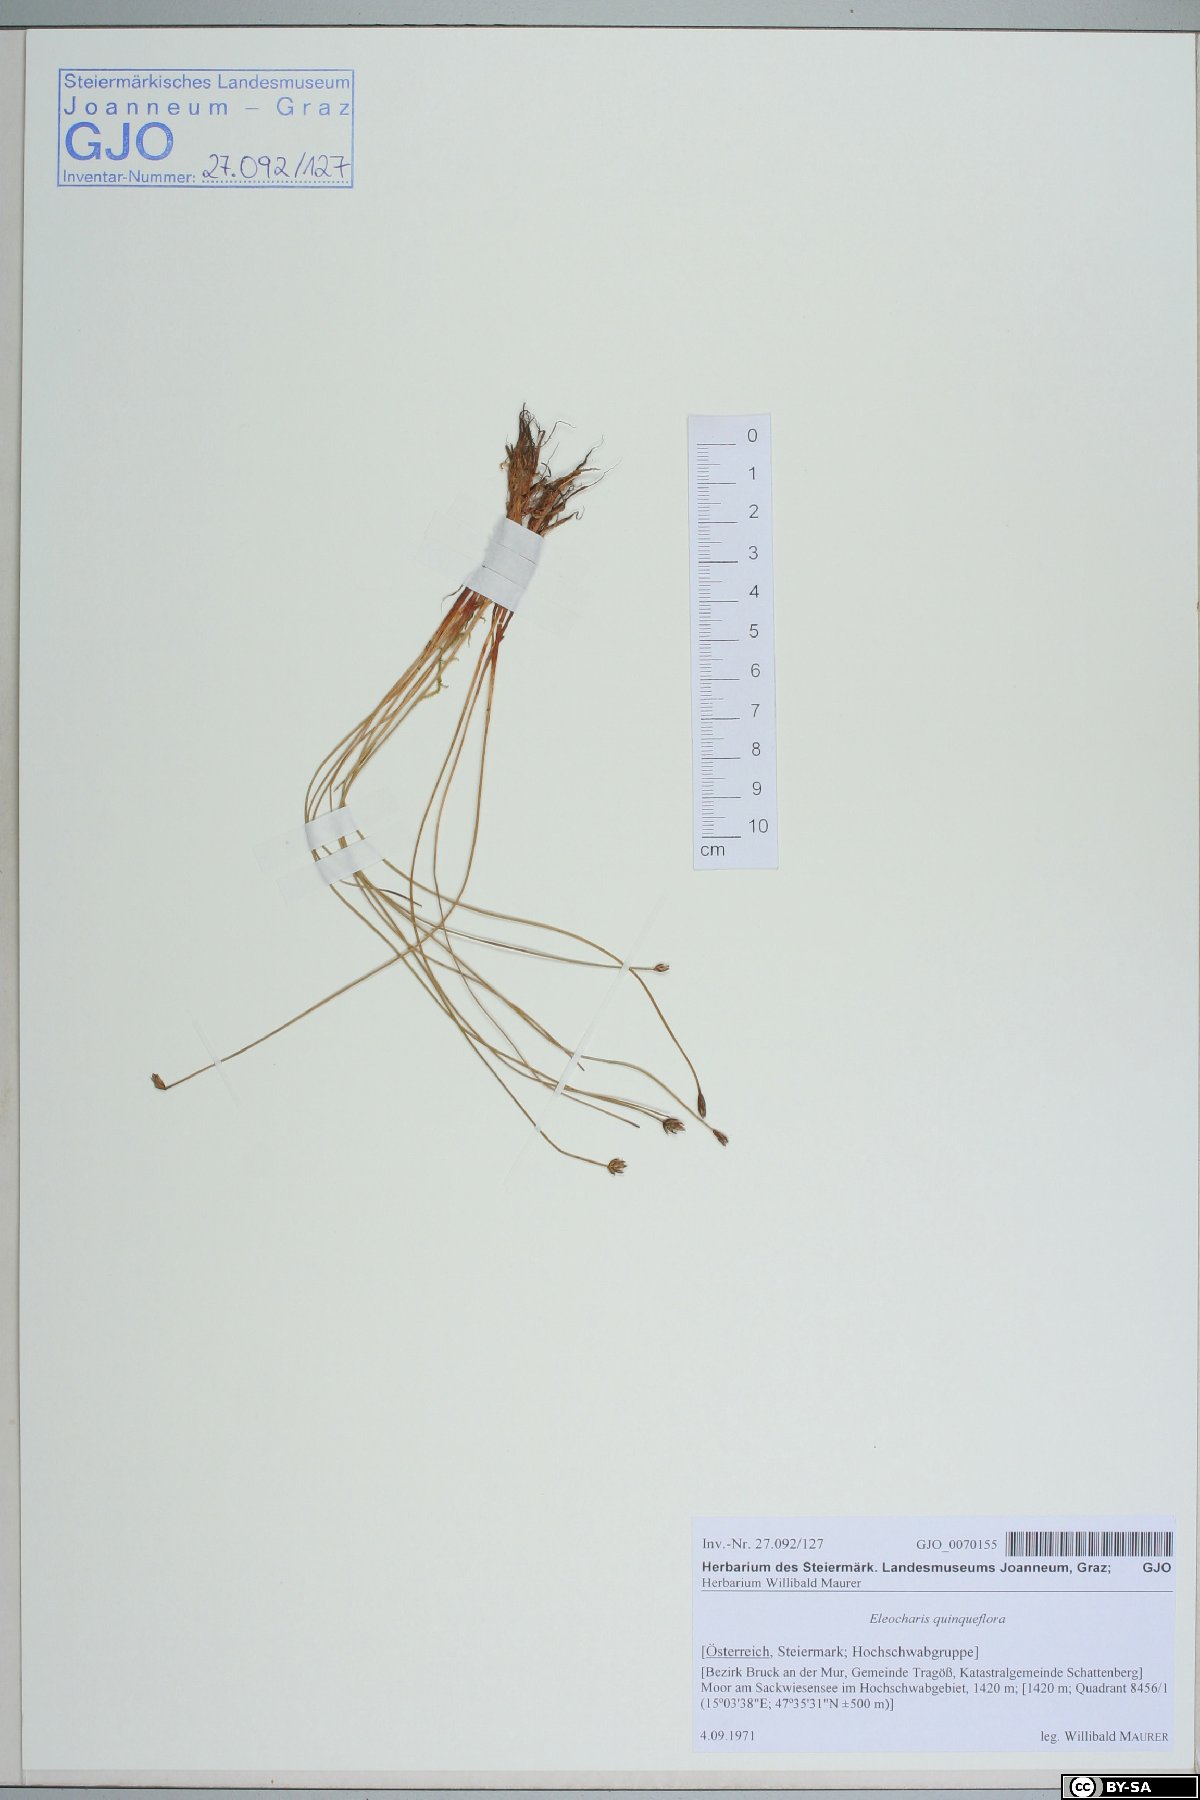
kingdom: Plantae
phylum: Tracheophyta
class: Liliopsida
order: Poales
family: Cyperaceae
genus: Eleocharis
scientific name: Eleocharis quinqueflora
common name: Few-flowered spike-rush
